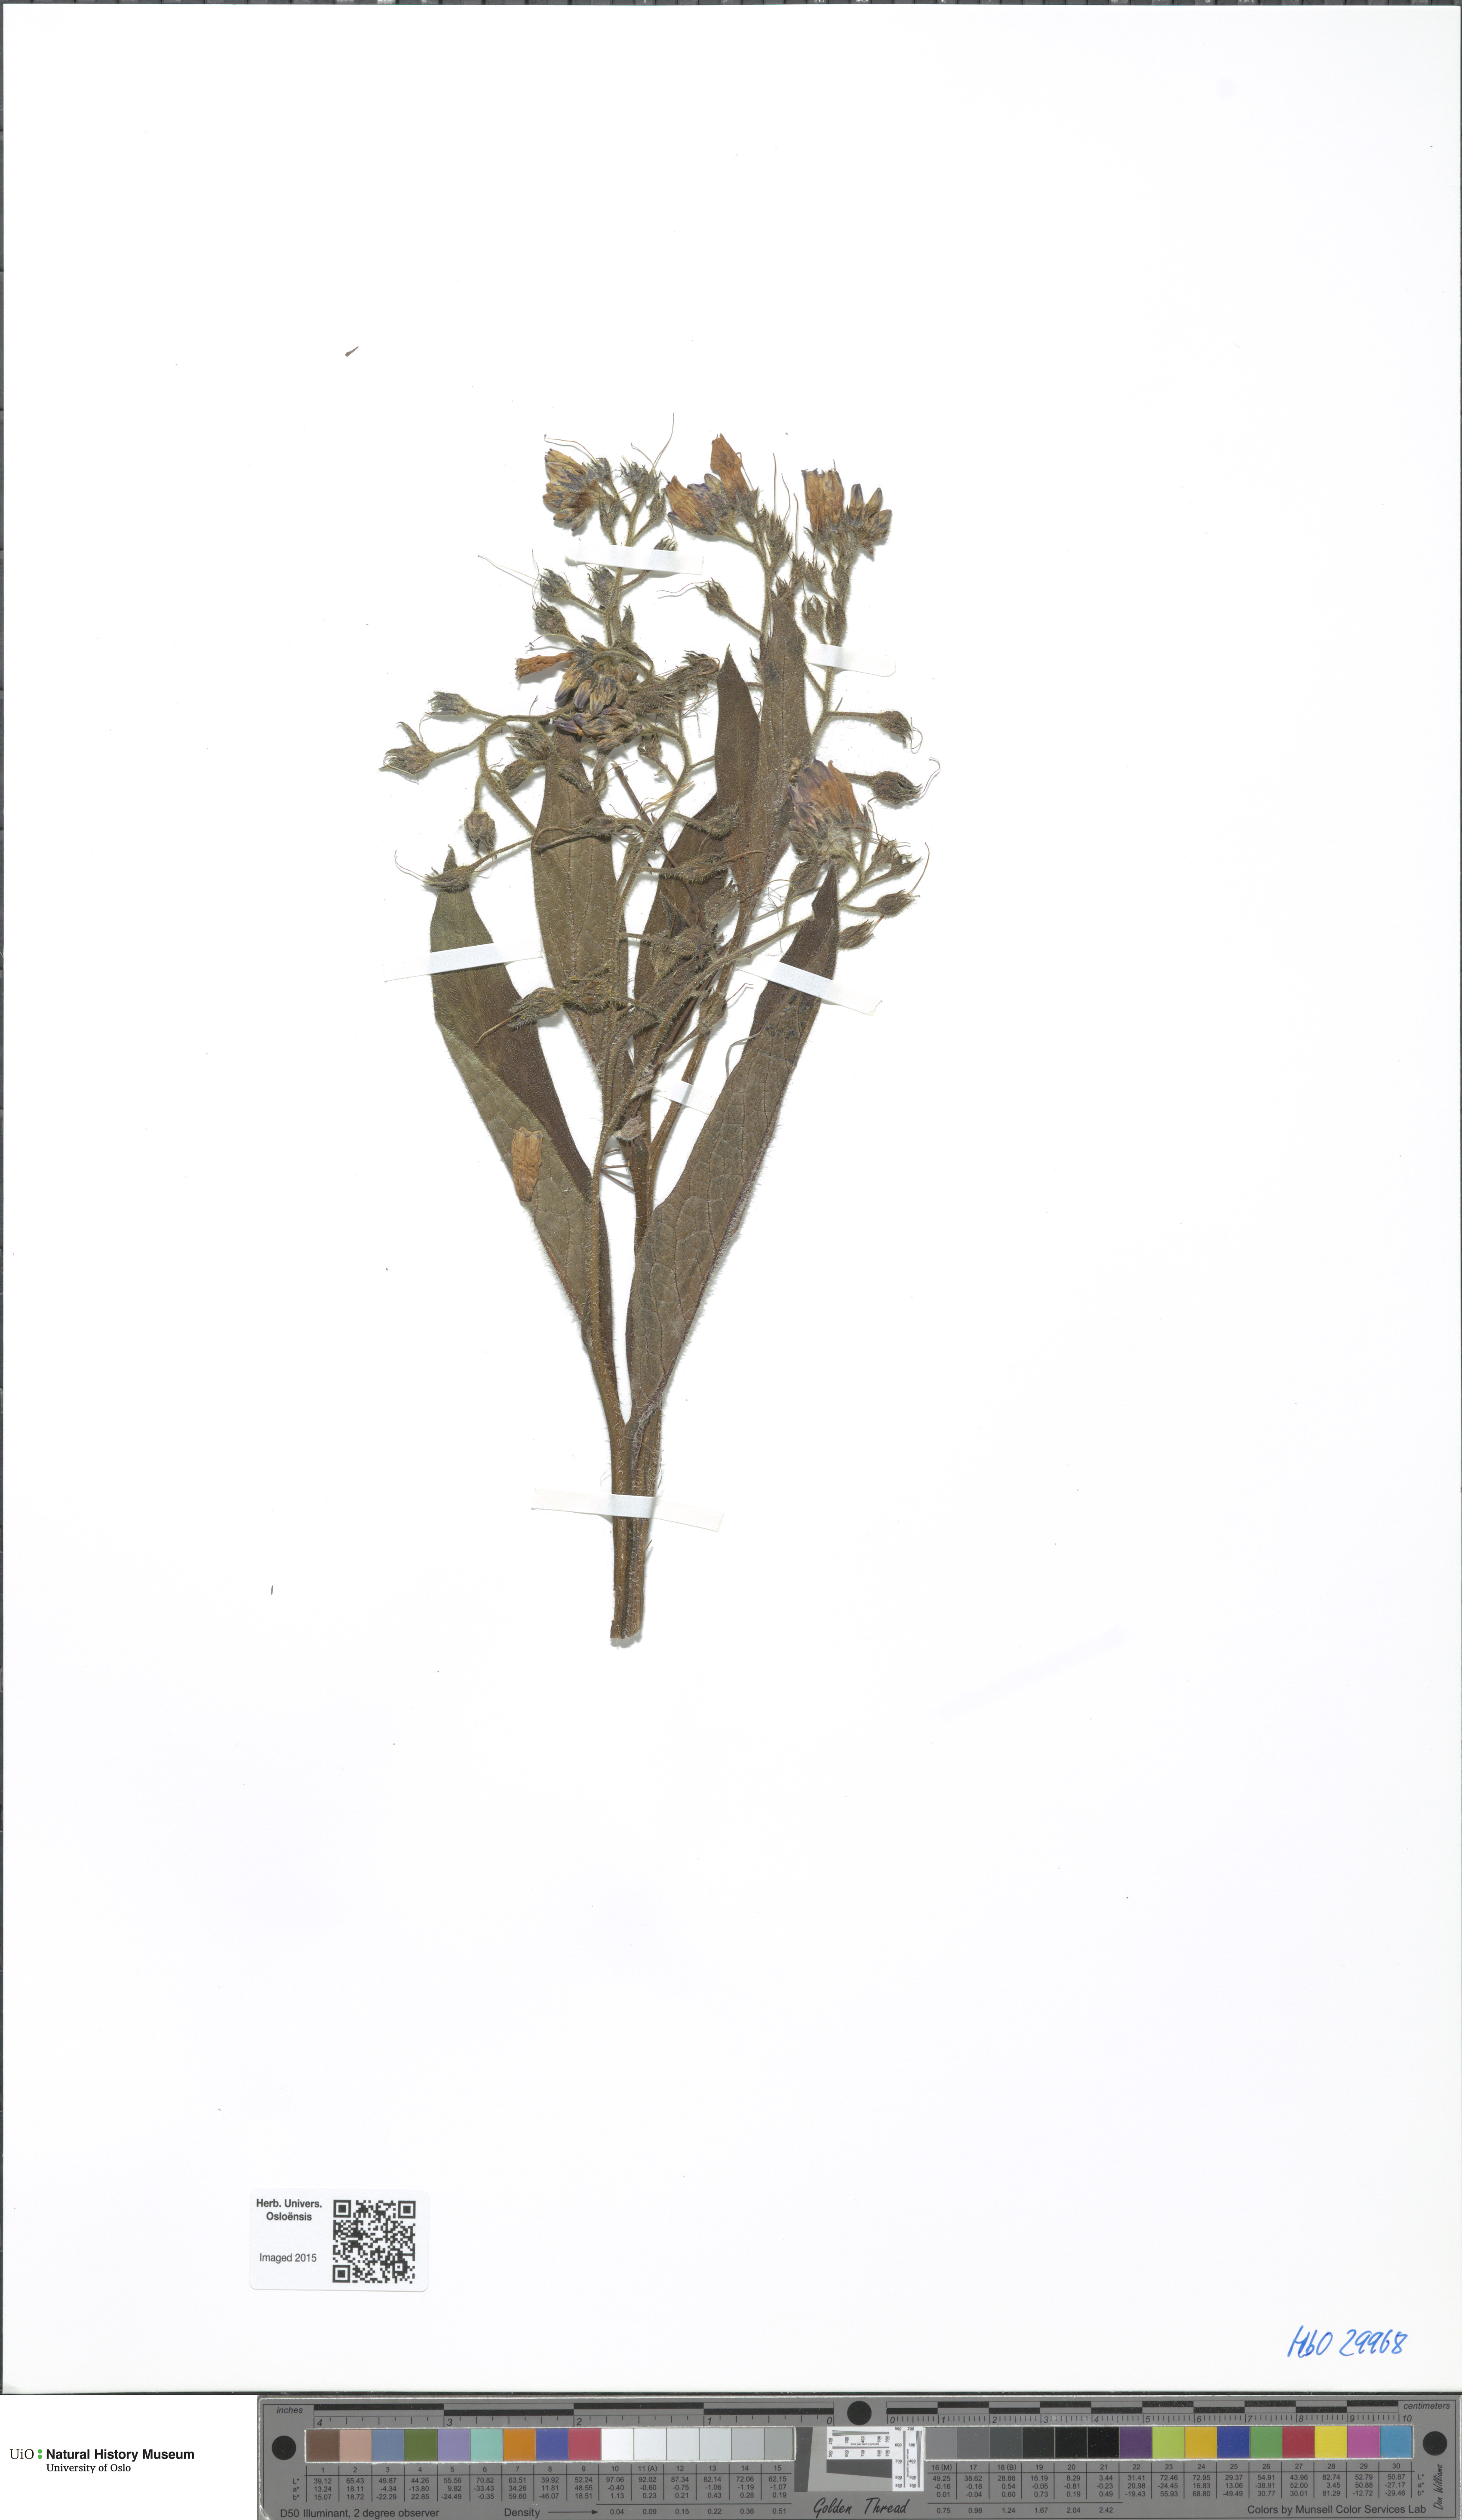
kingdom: Plantae
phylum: Tracheophyta
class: Magnoliopsida
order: Boraginales
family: Boraginaceae
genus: Symphytum
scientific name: Symphytum officinale
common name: Common comfrey
